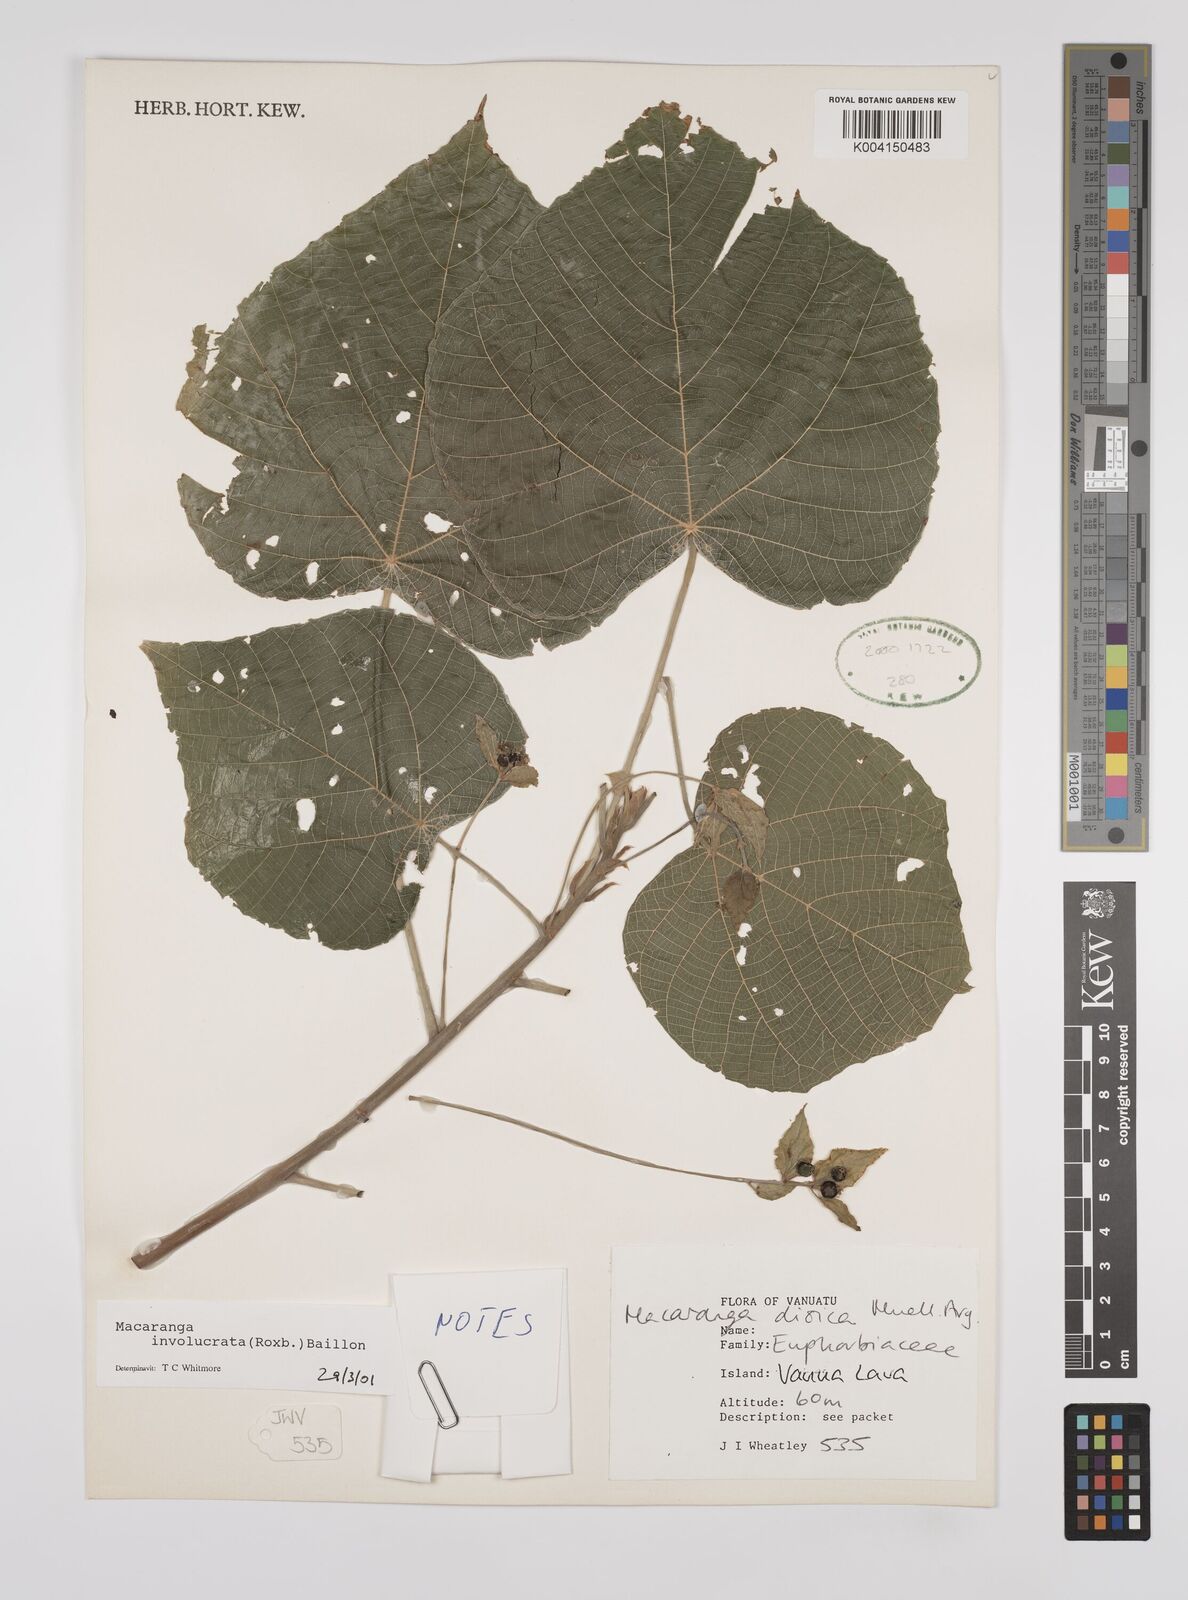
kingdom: Plantae
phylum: Tracheophyta
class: Magnoliopsida
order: Malpighiales
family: Euphorbiaceae
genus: Macaranga
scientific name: Macaranga involucrata
